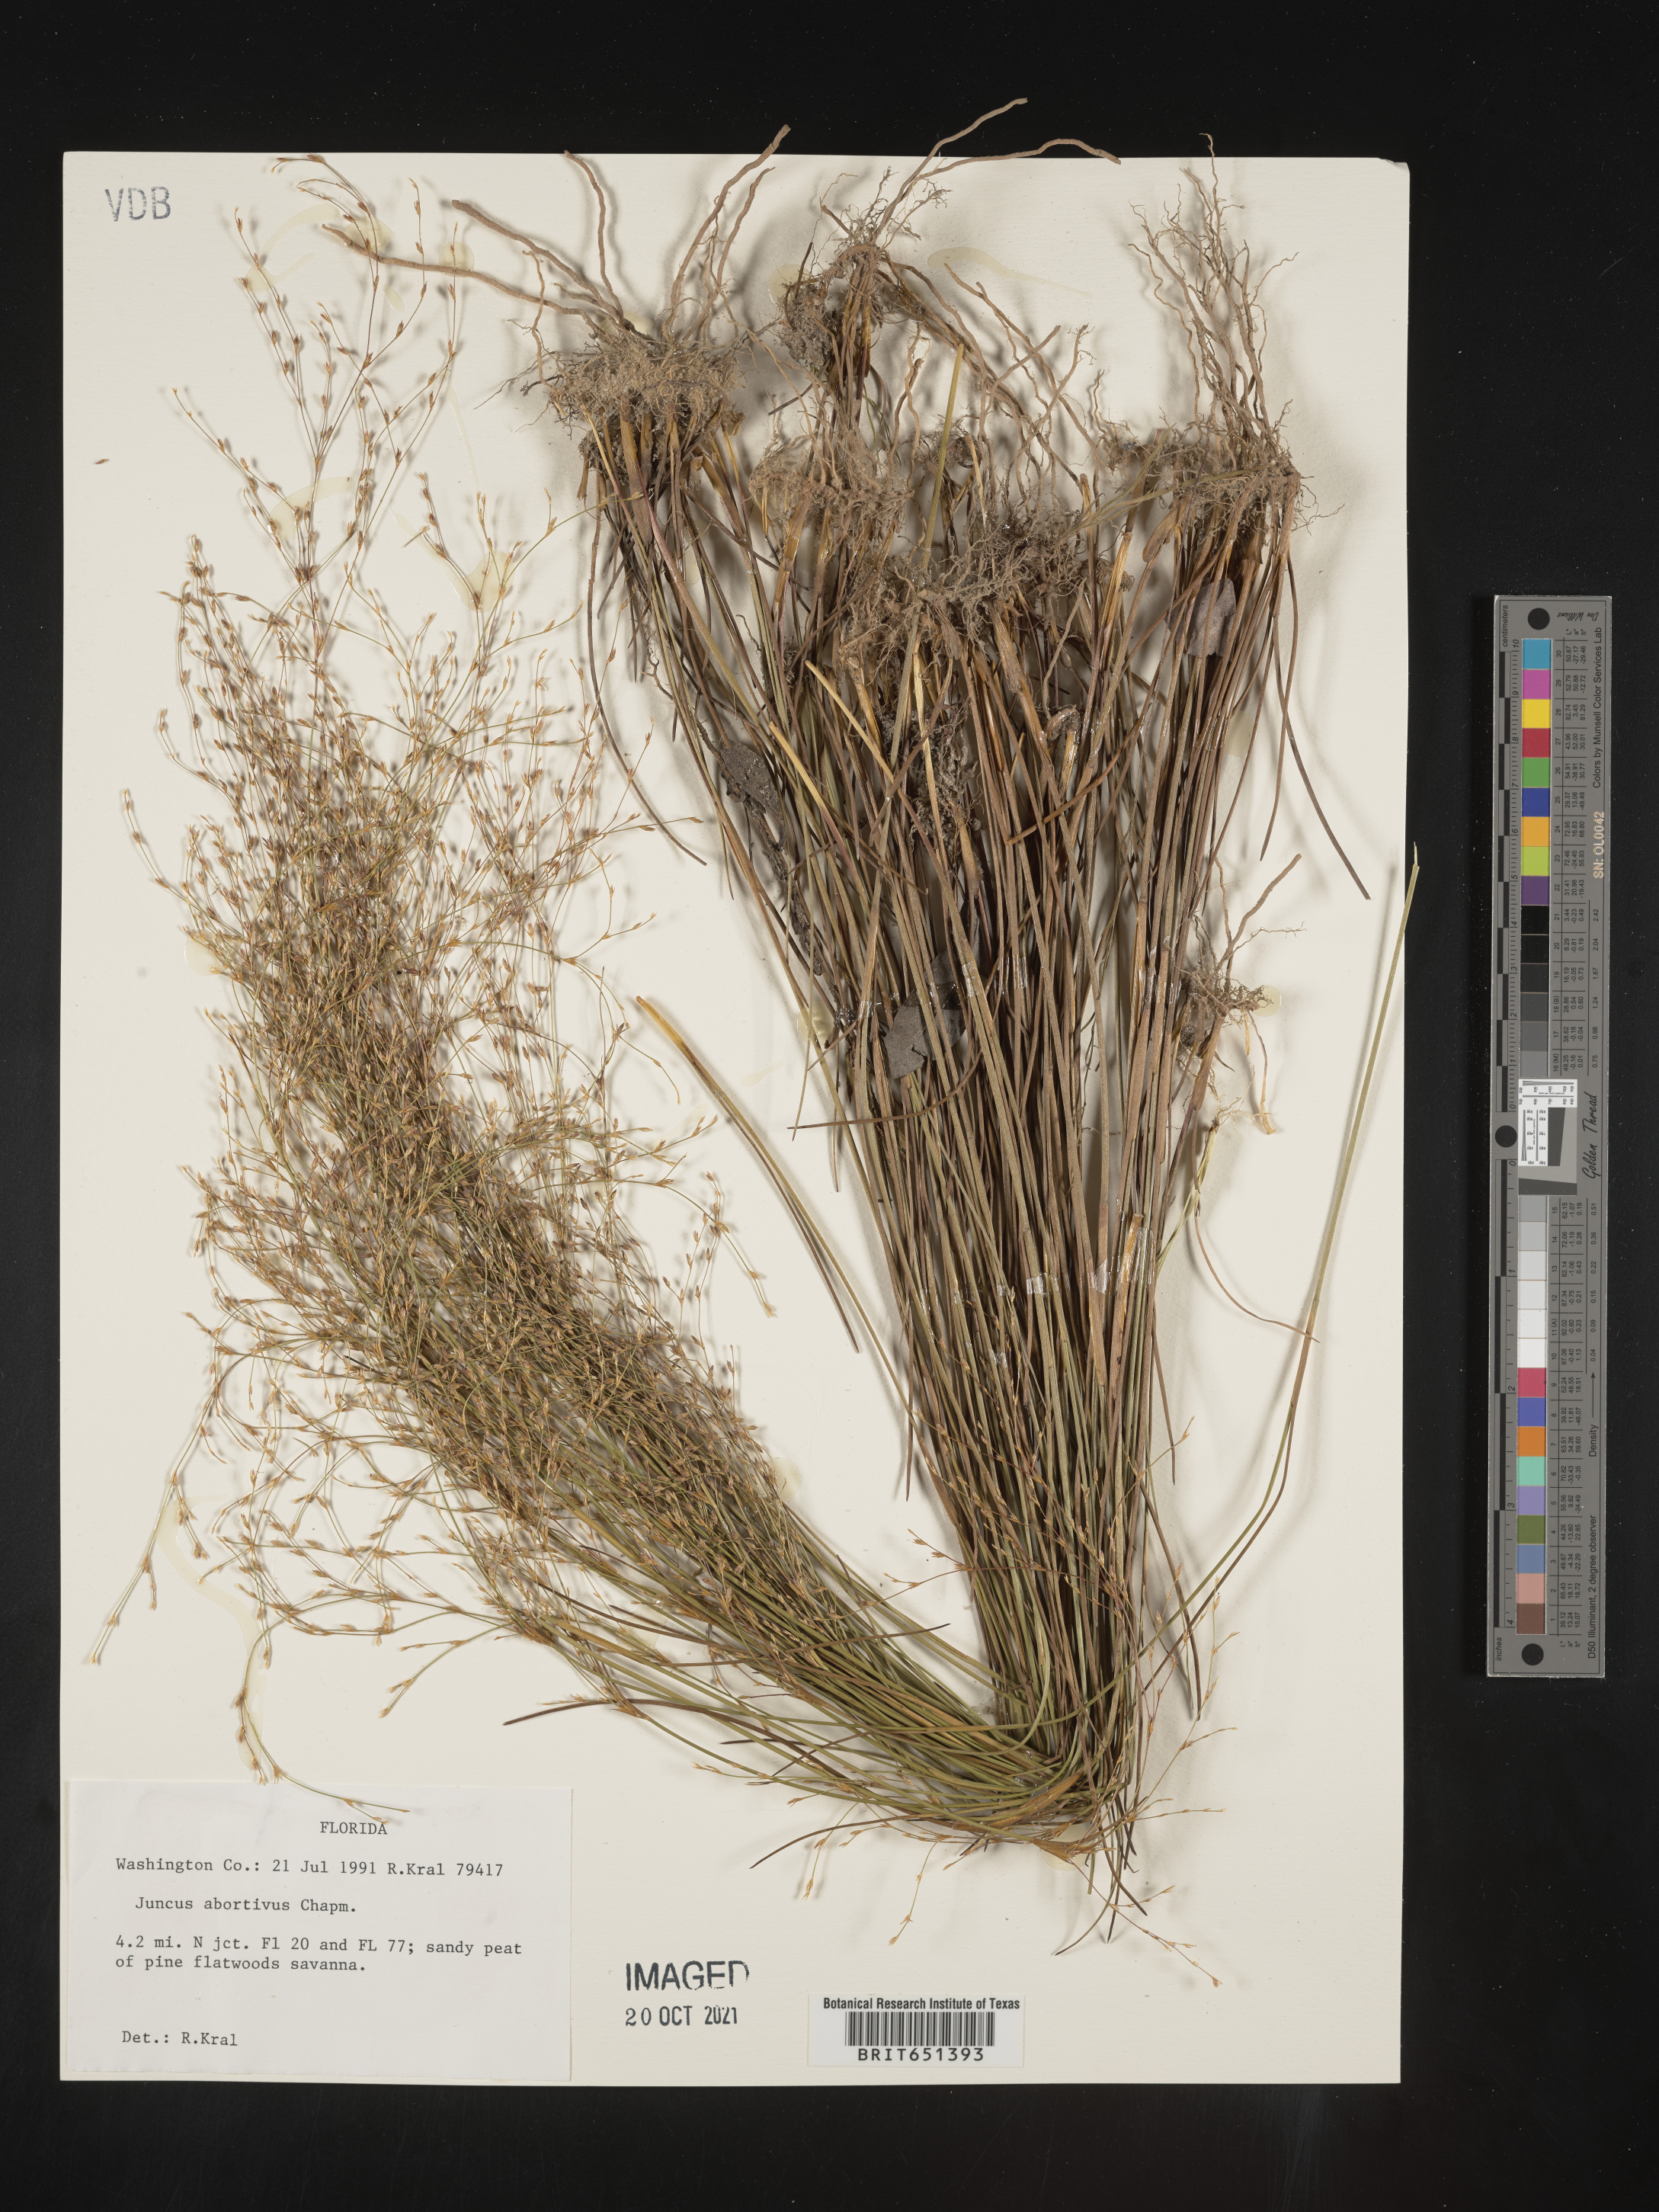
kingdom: Plantae
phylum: Tracheophyta
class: Liliopsida
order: Poales
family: Juncaceae
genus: Juncus
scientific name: Juncus abortivus
